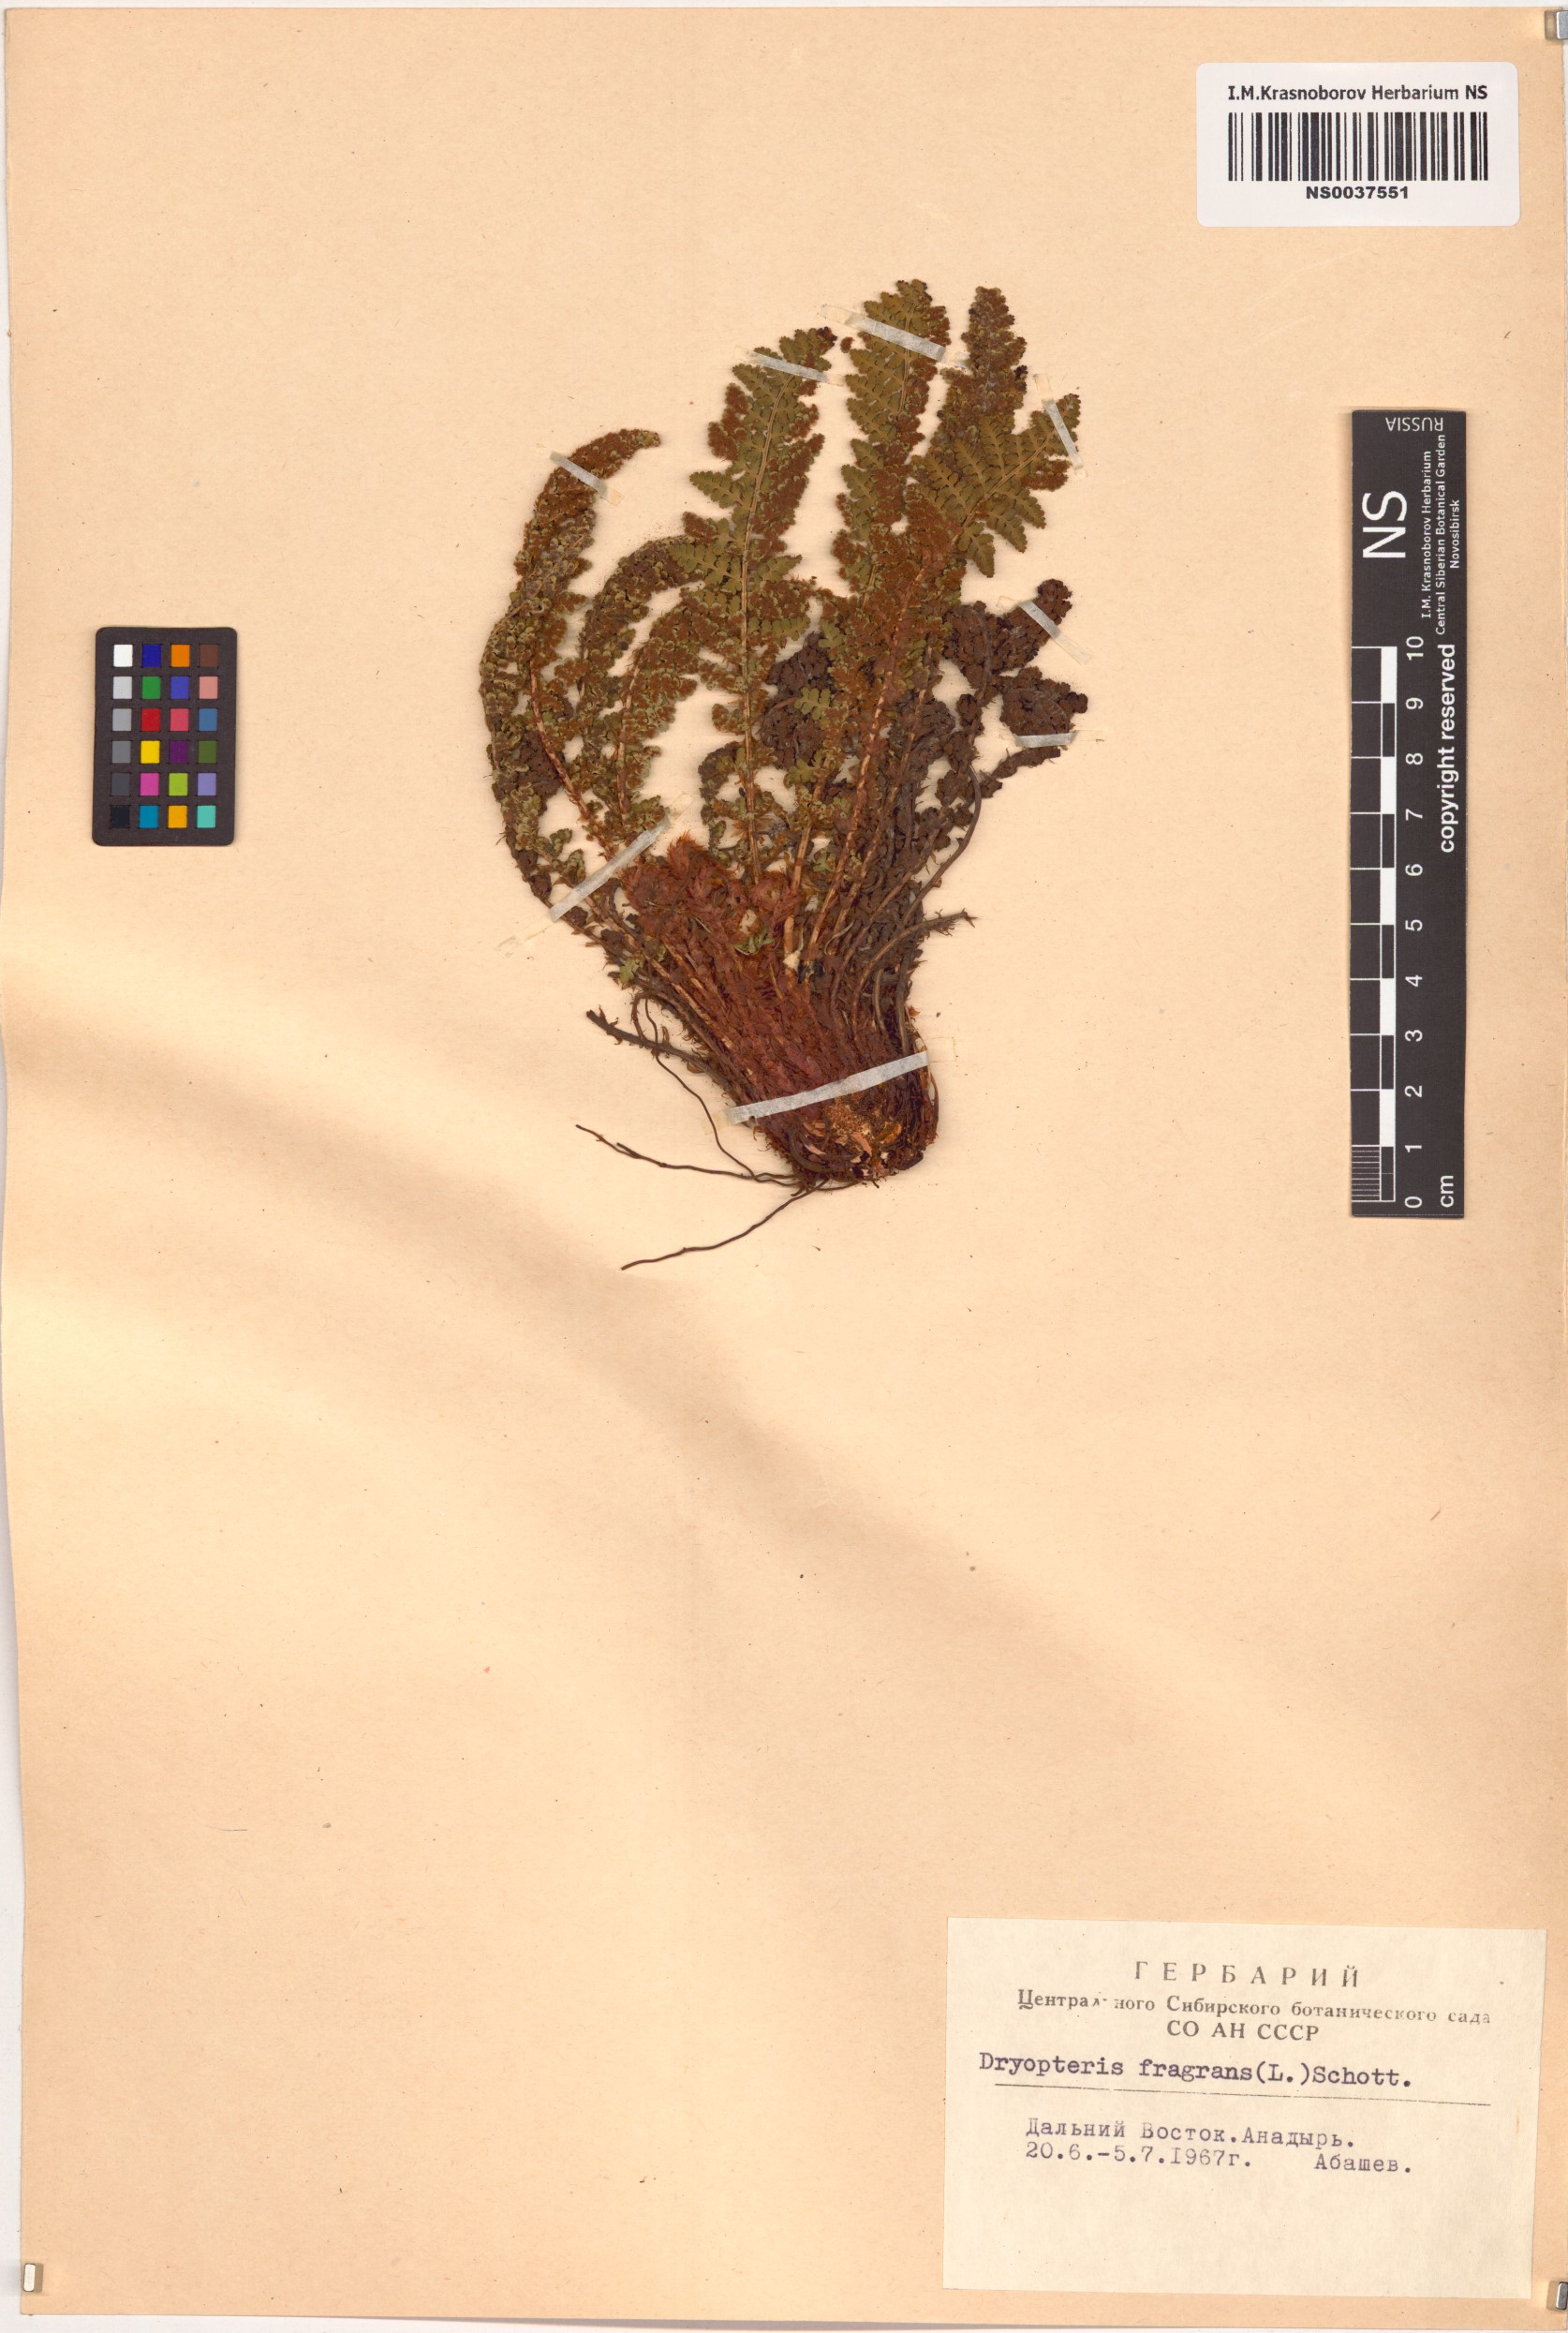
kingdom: Plantae
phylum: Tracheophyta
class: Polypodiopsida
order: Polypodiales
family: Dryopteridaceae
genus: Dryopteris
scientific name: Dryopteris fragrans
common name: Fragrant wood fern
